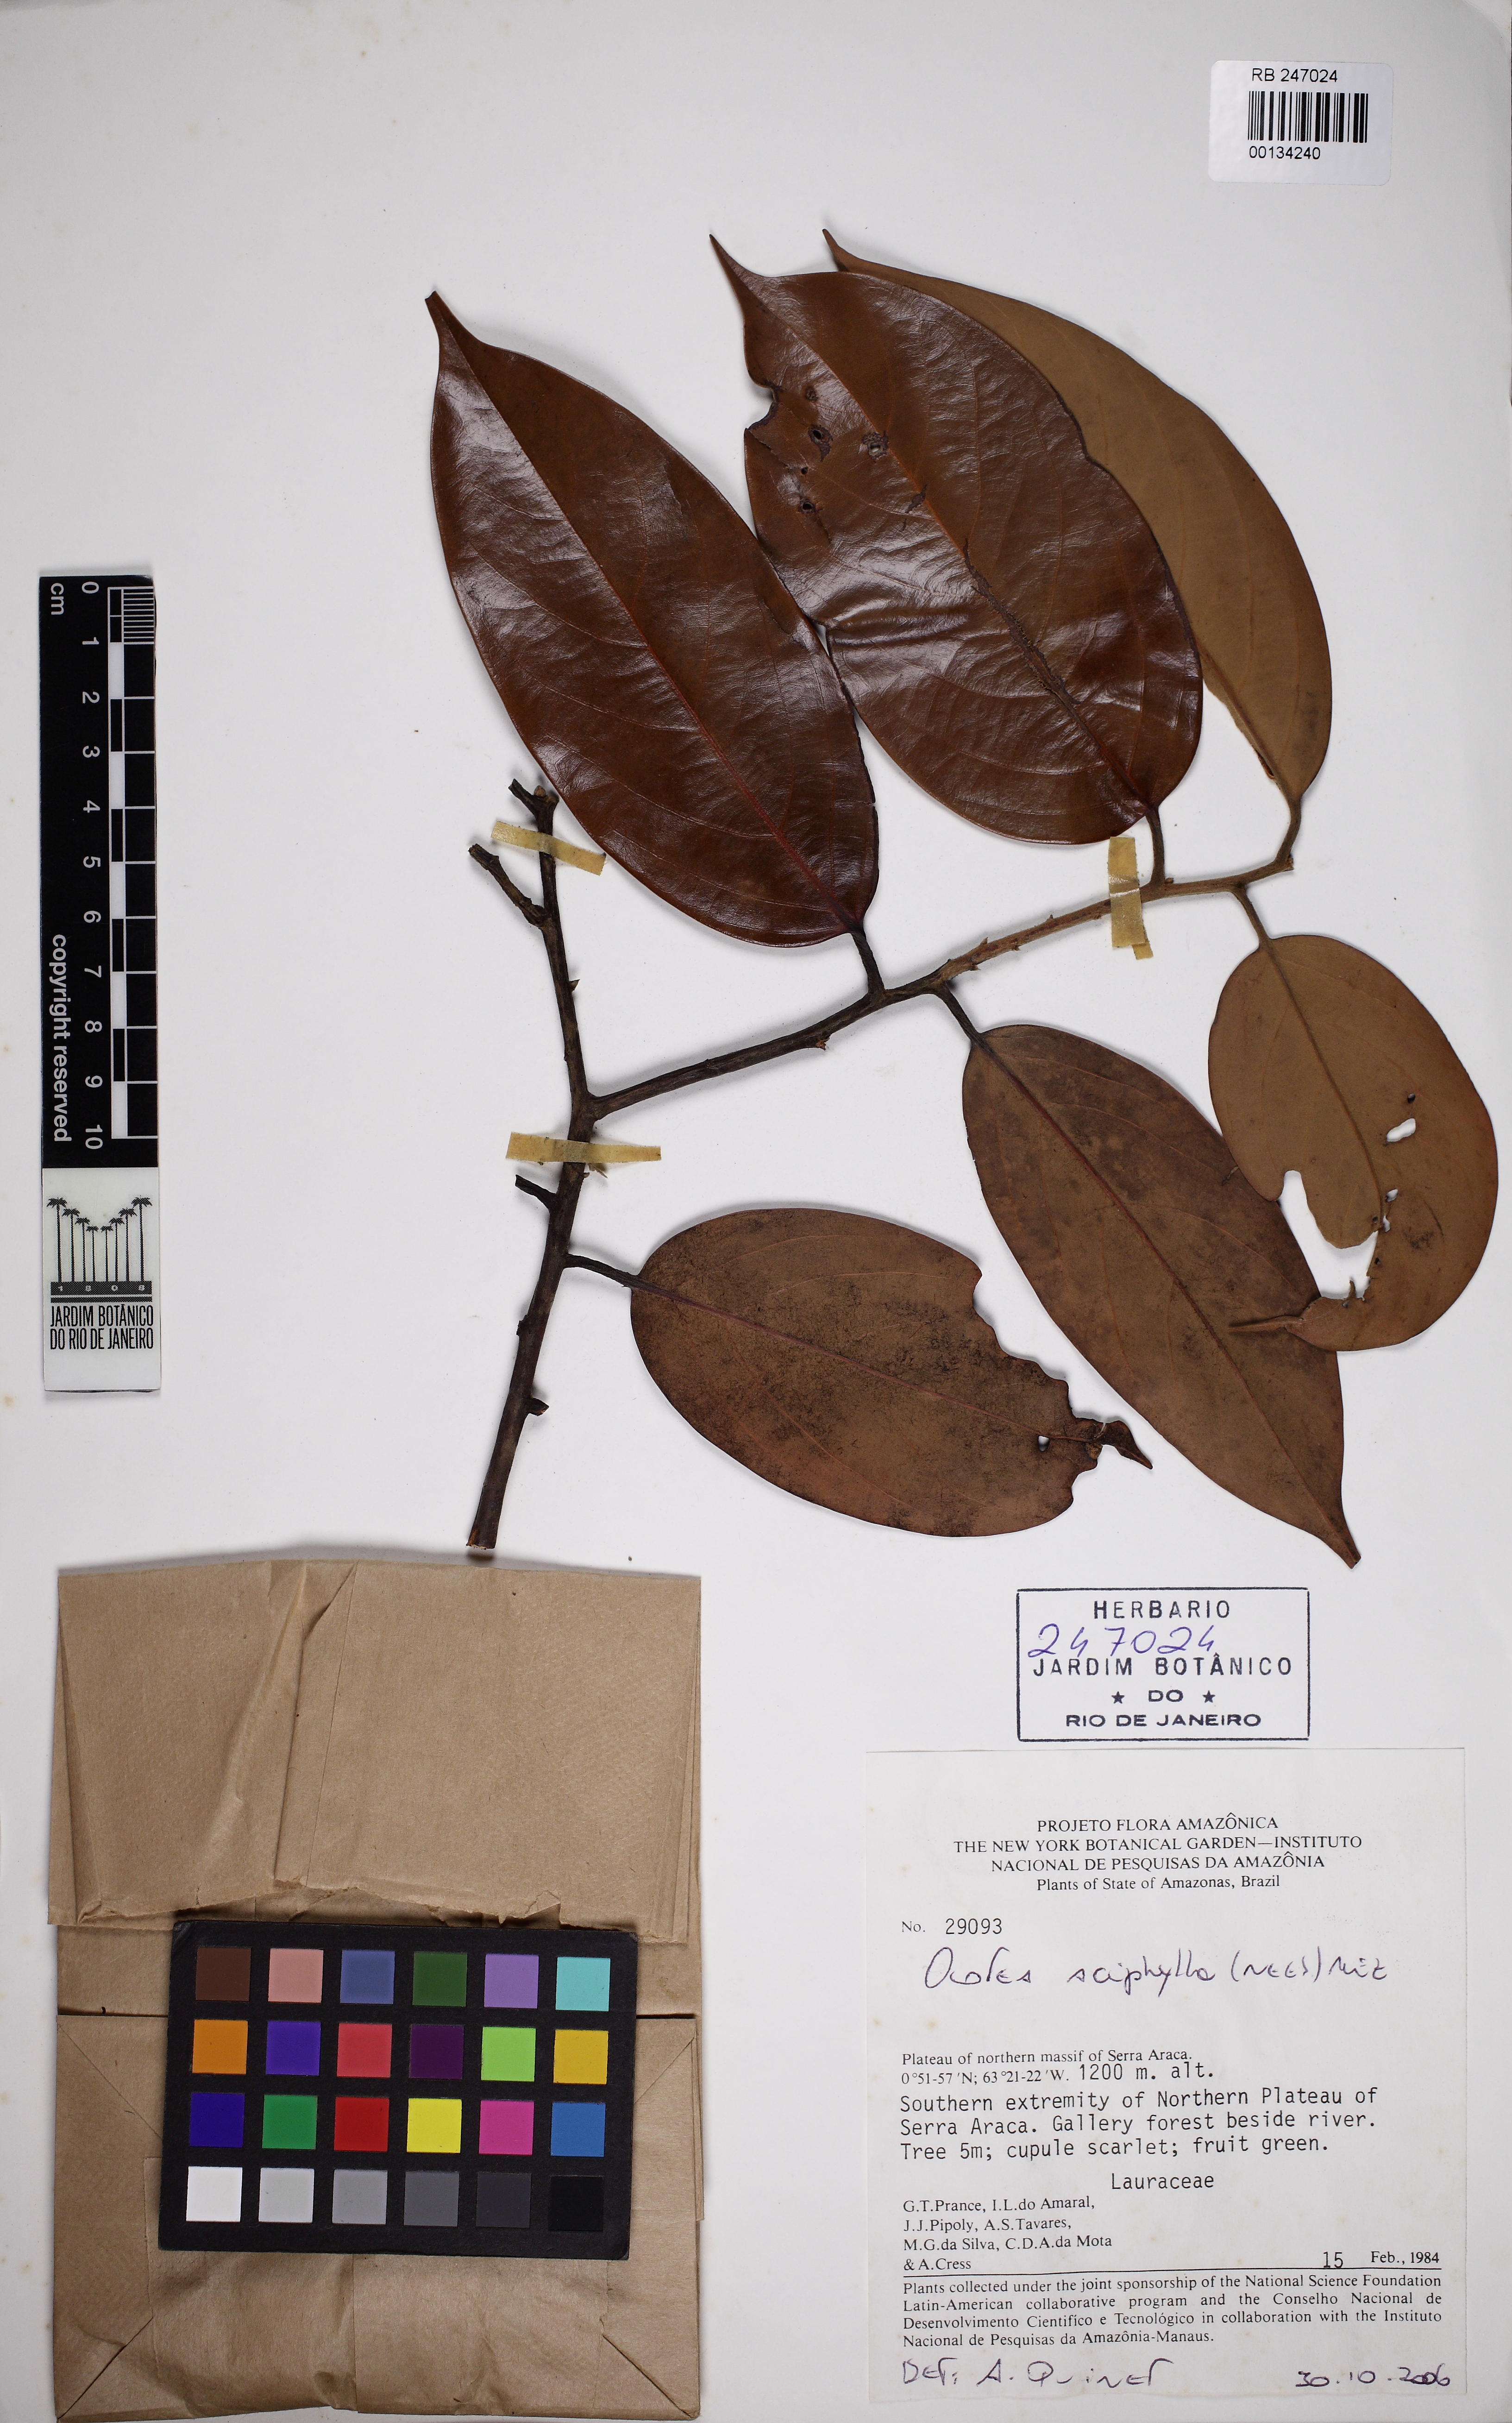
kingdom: Plantae
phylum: Tracheophyta
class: Magnoliopsida
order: Laurales
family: Lauraceae
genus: Ocotea
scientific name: Ocotea aciphylla
